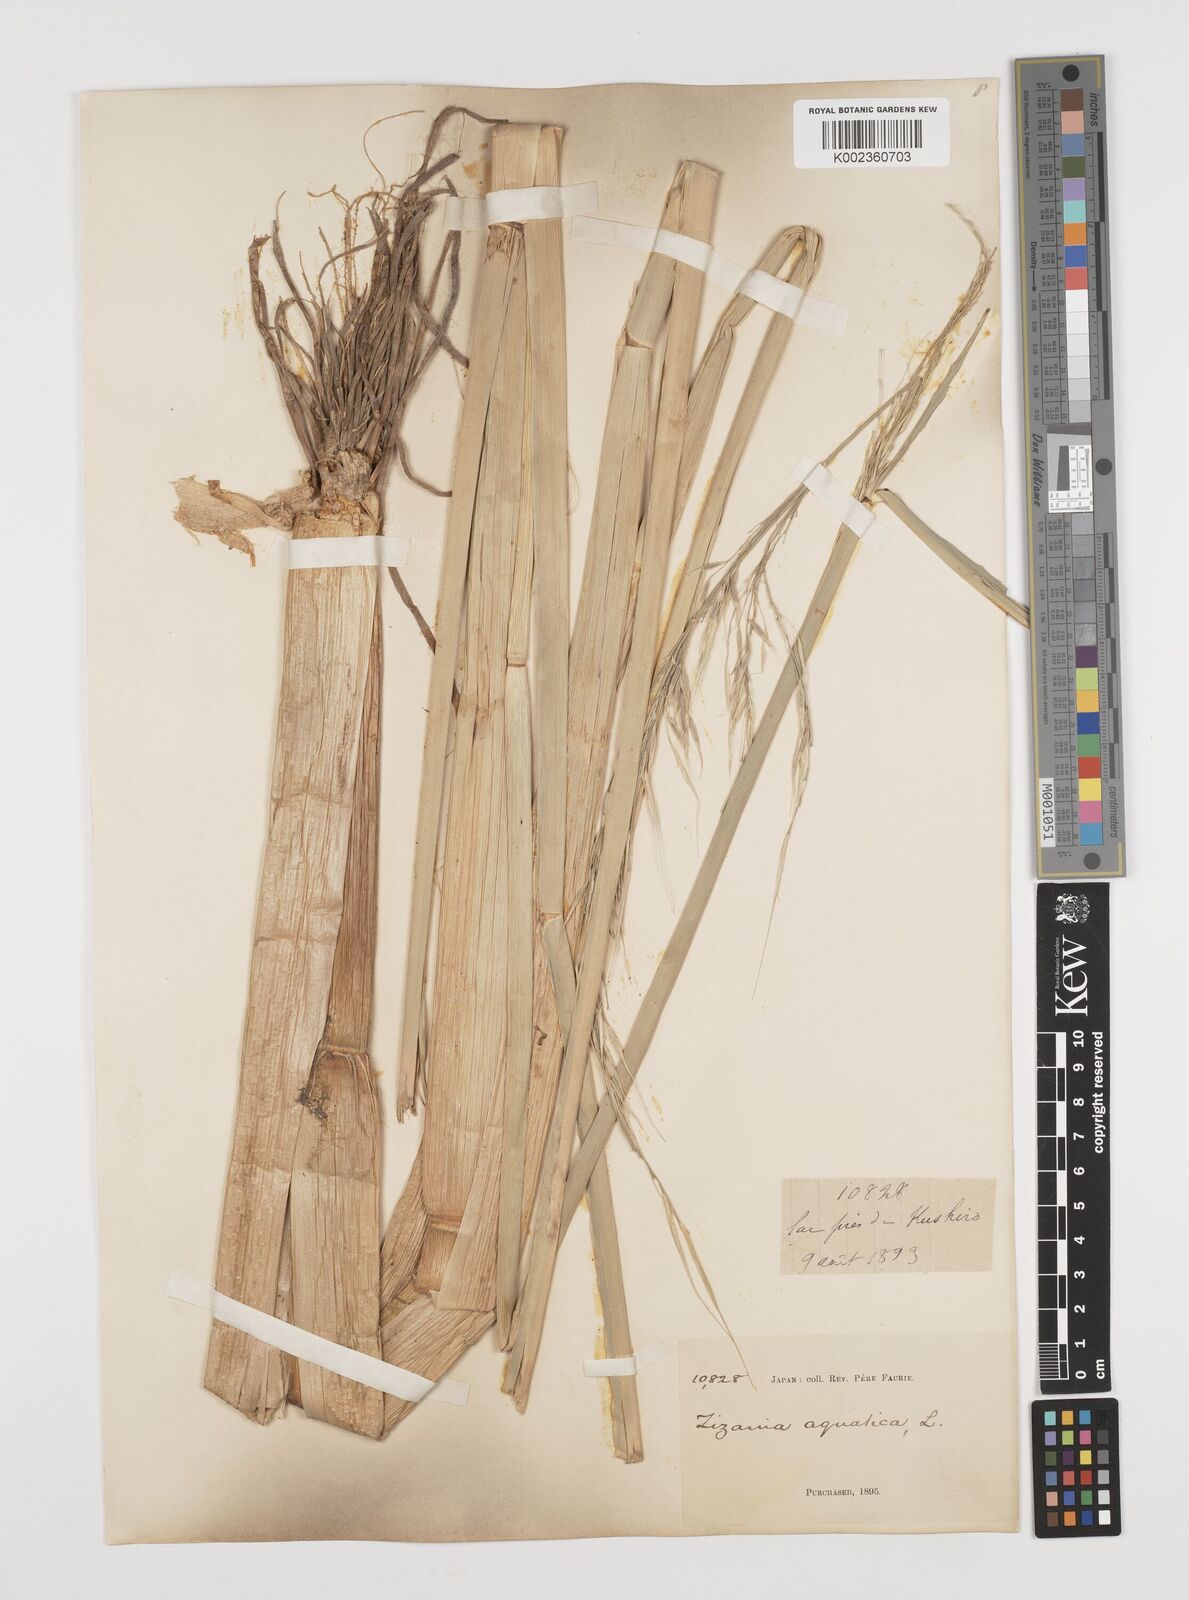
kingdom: Plantae
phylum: Tracheophyta
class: Liliopsida
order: Poales
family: Poaceae
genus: Zizania
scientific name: Zizania latifolia
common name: Manchurian wildrice
